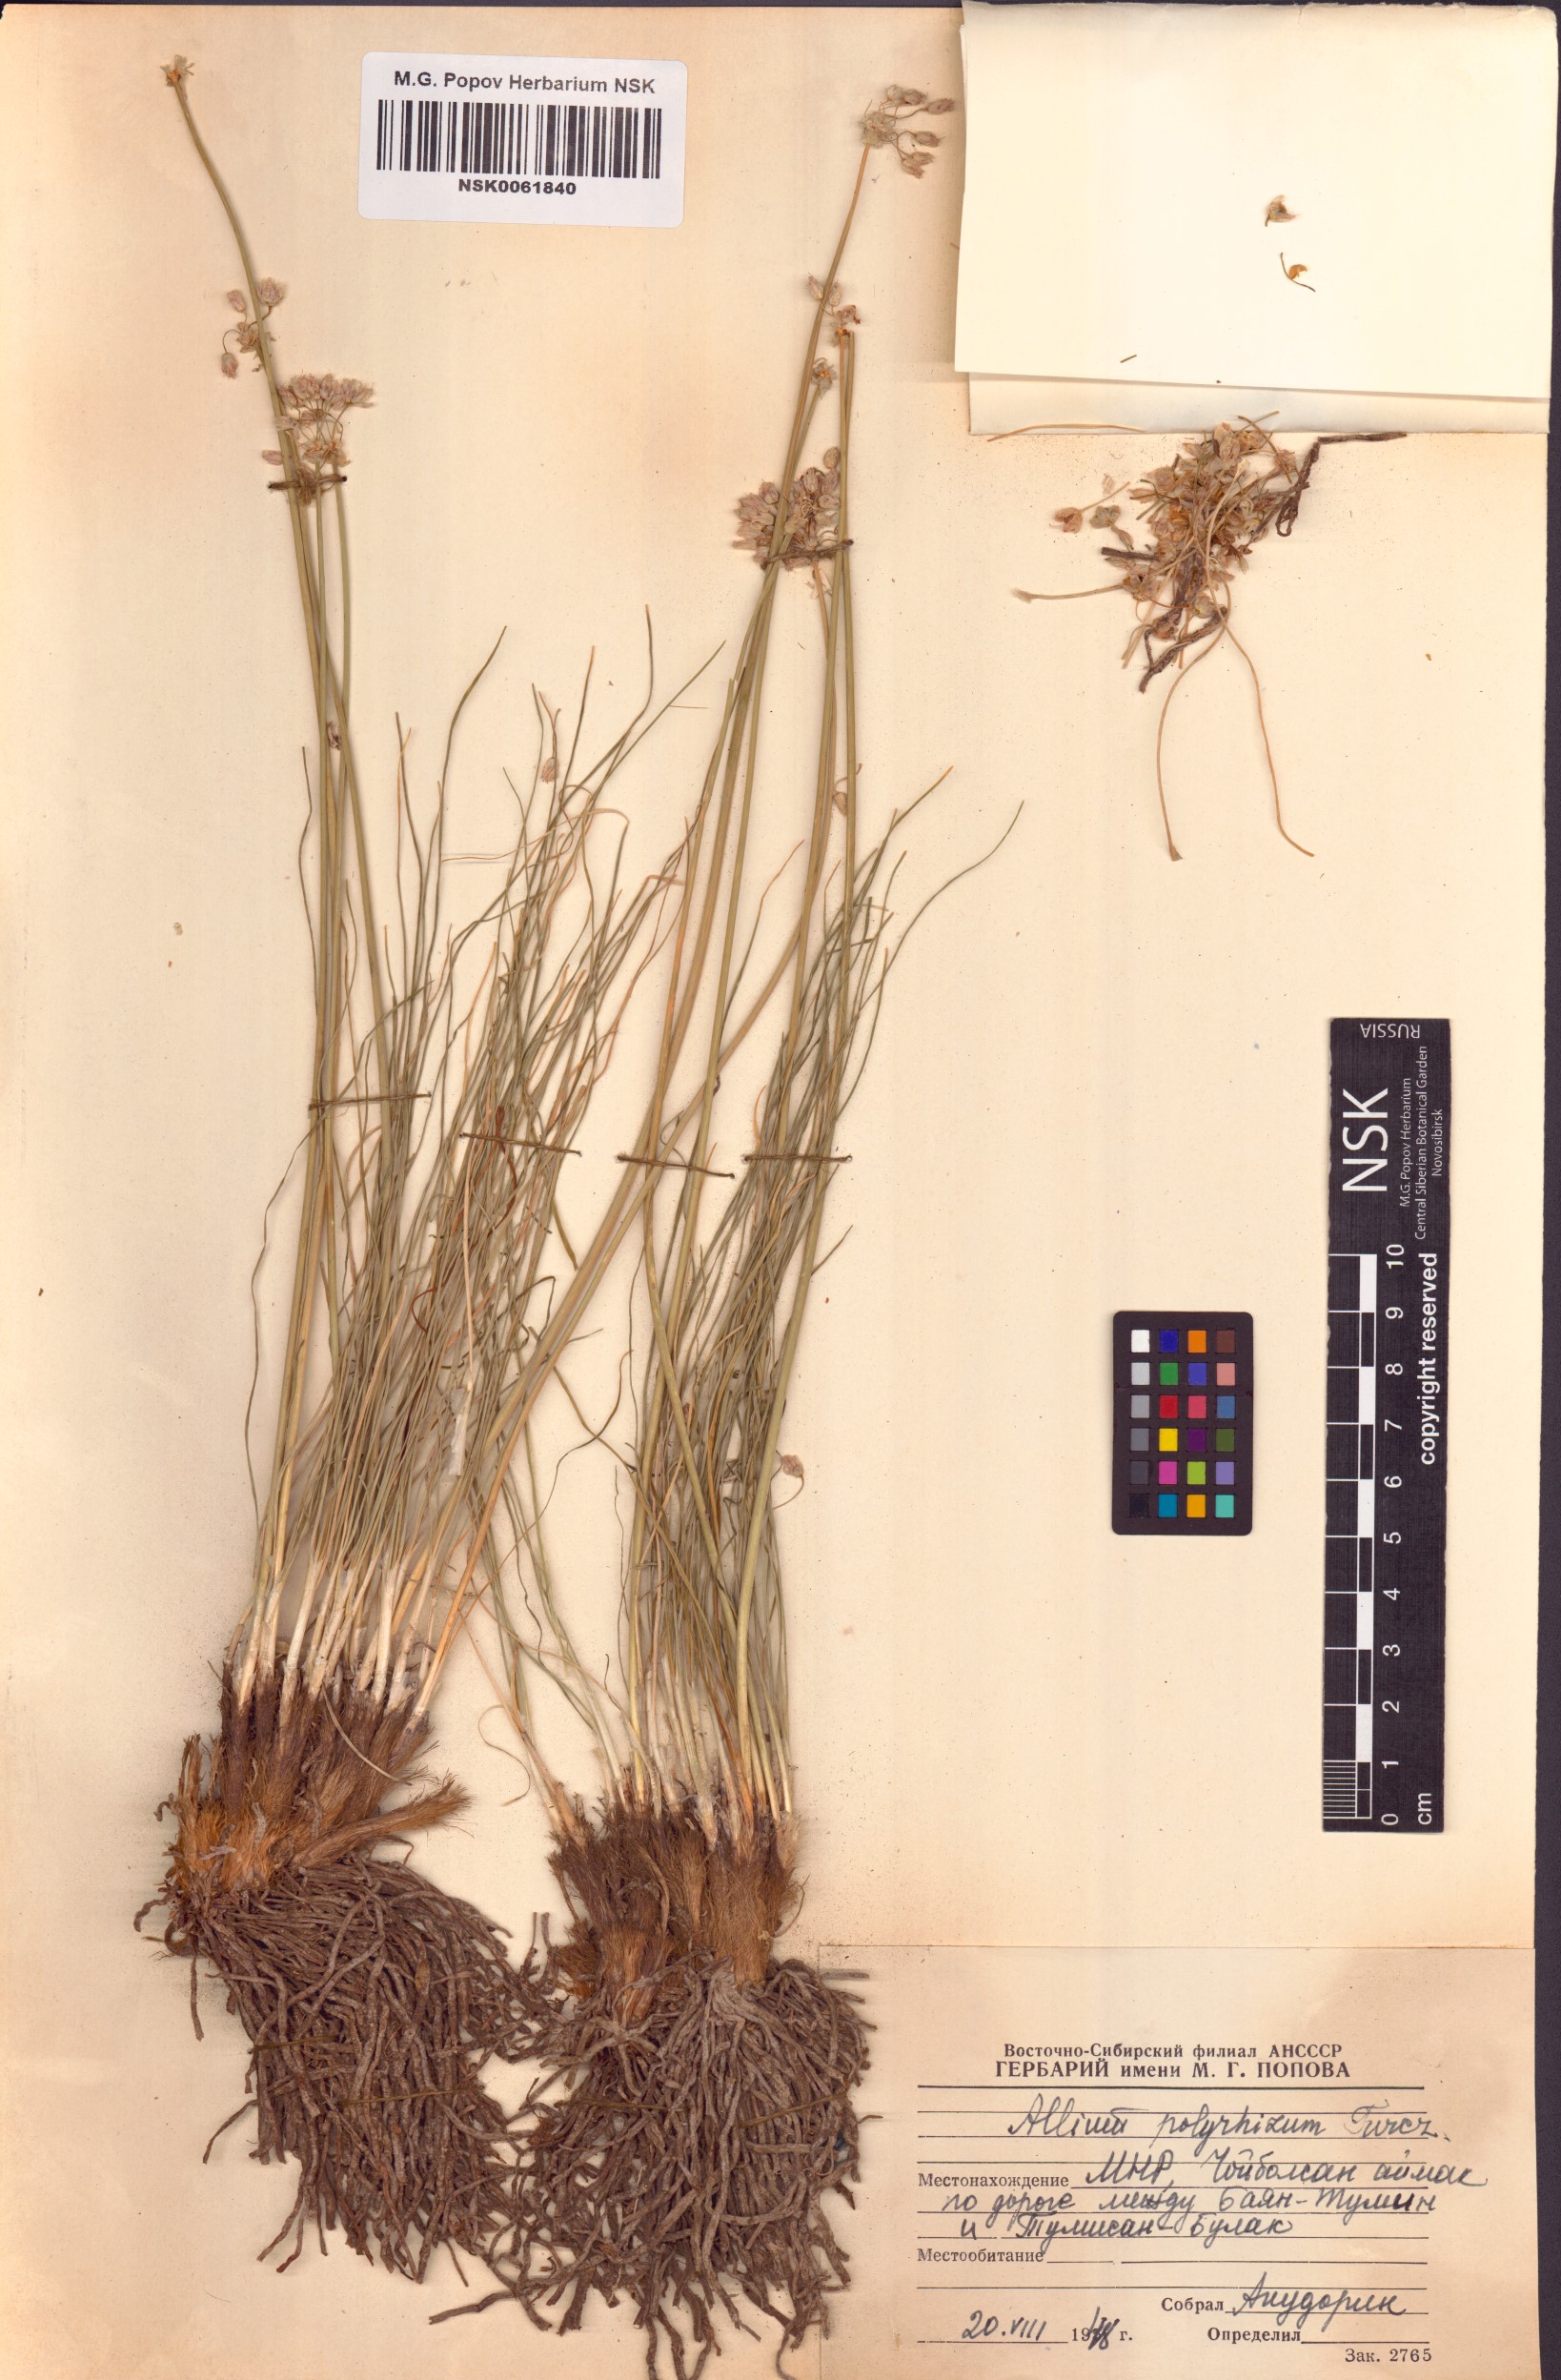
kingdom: Plantae
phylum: Tracheophyta
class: Liliopsida
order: Asparagales
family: Amaryllidaceae
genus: Allium
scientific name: Allium polyrhizum
